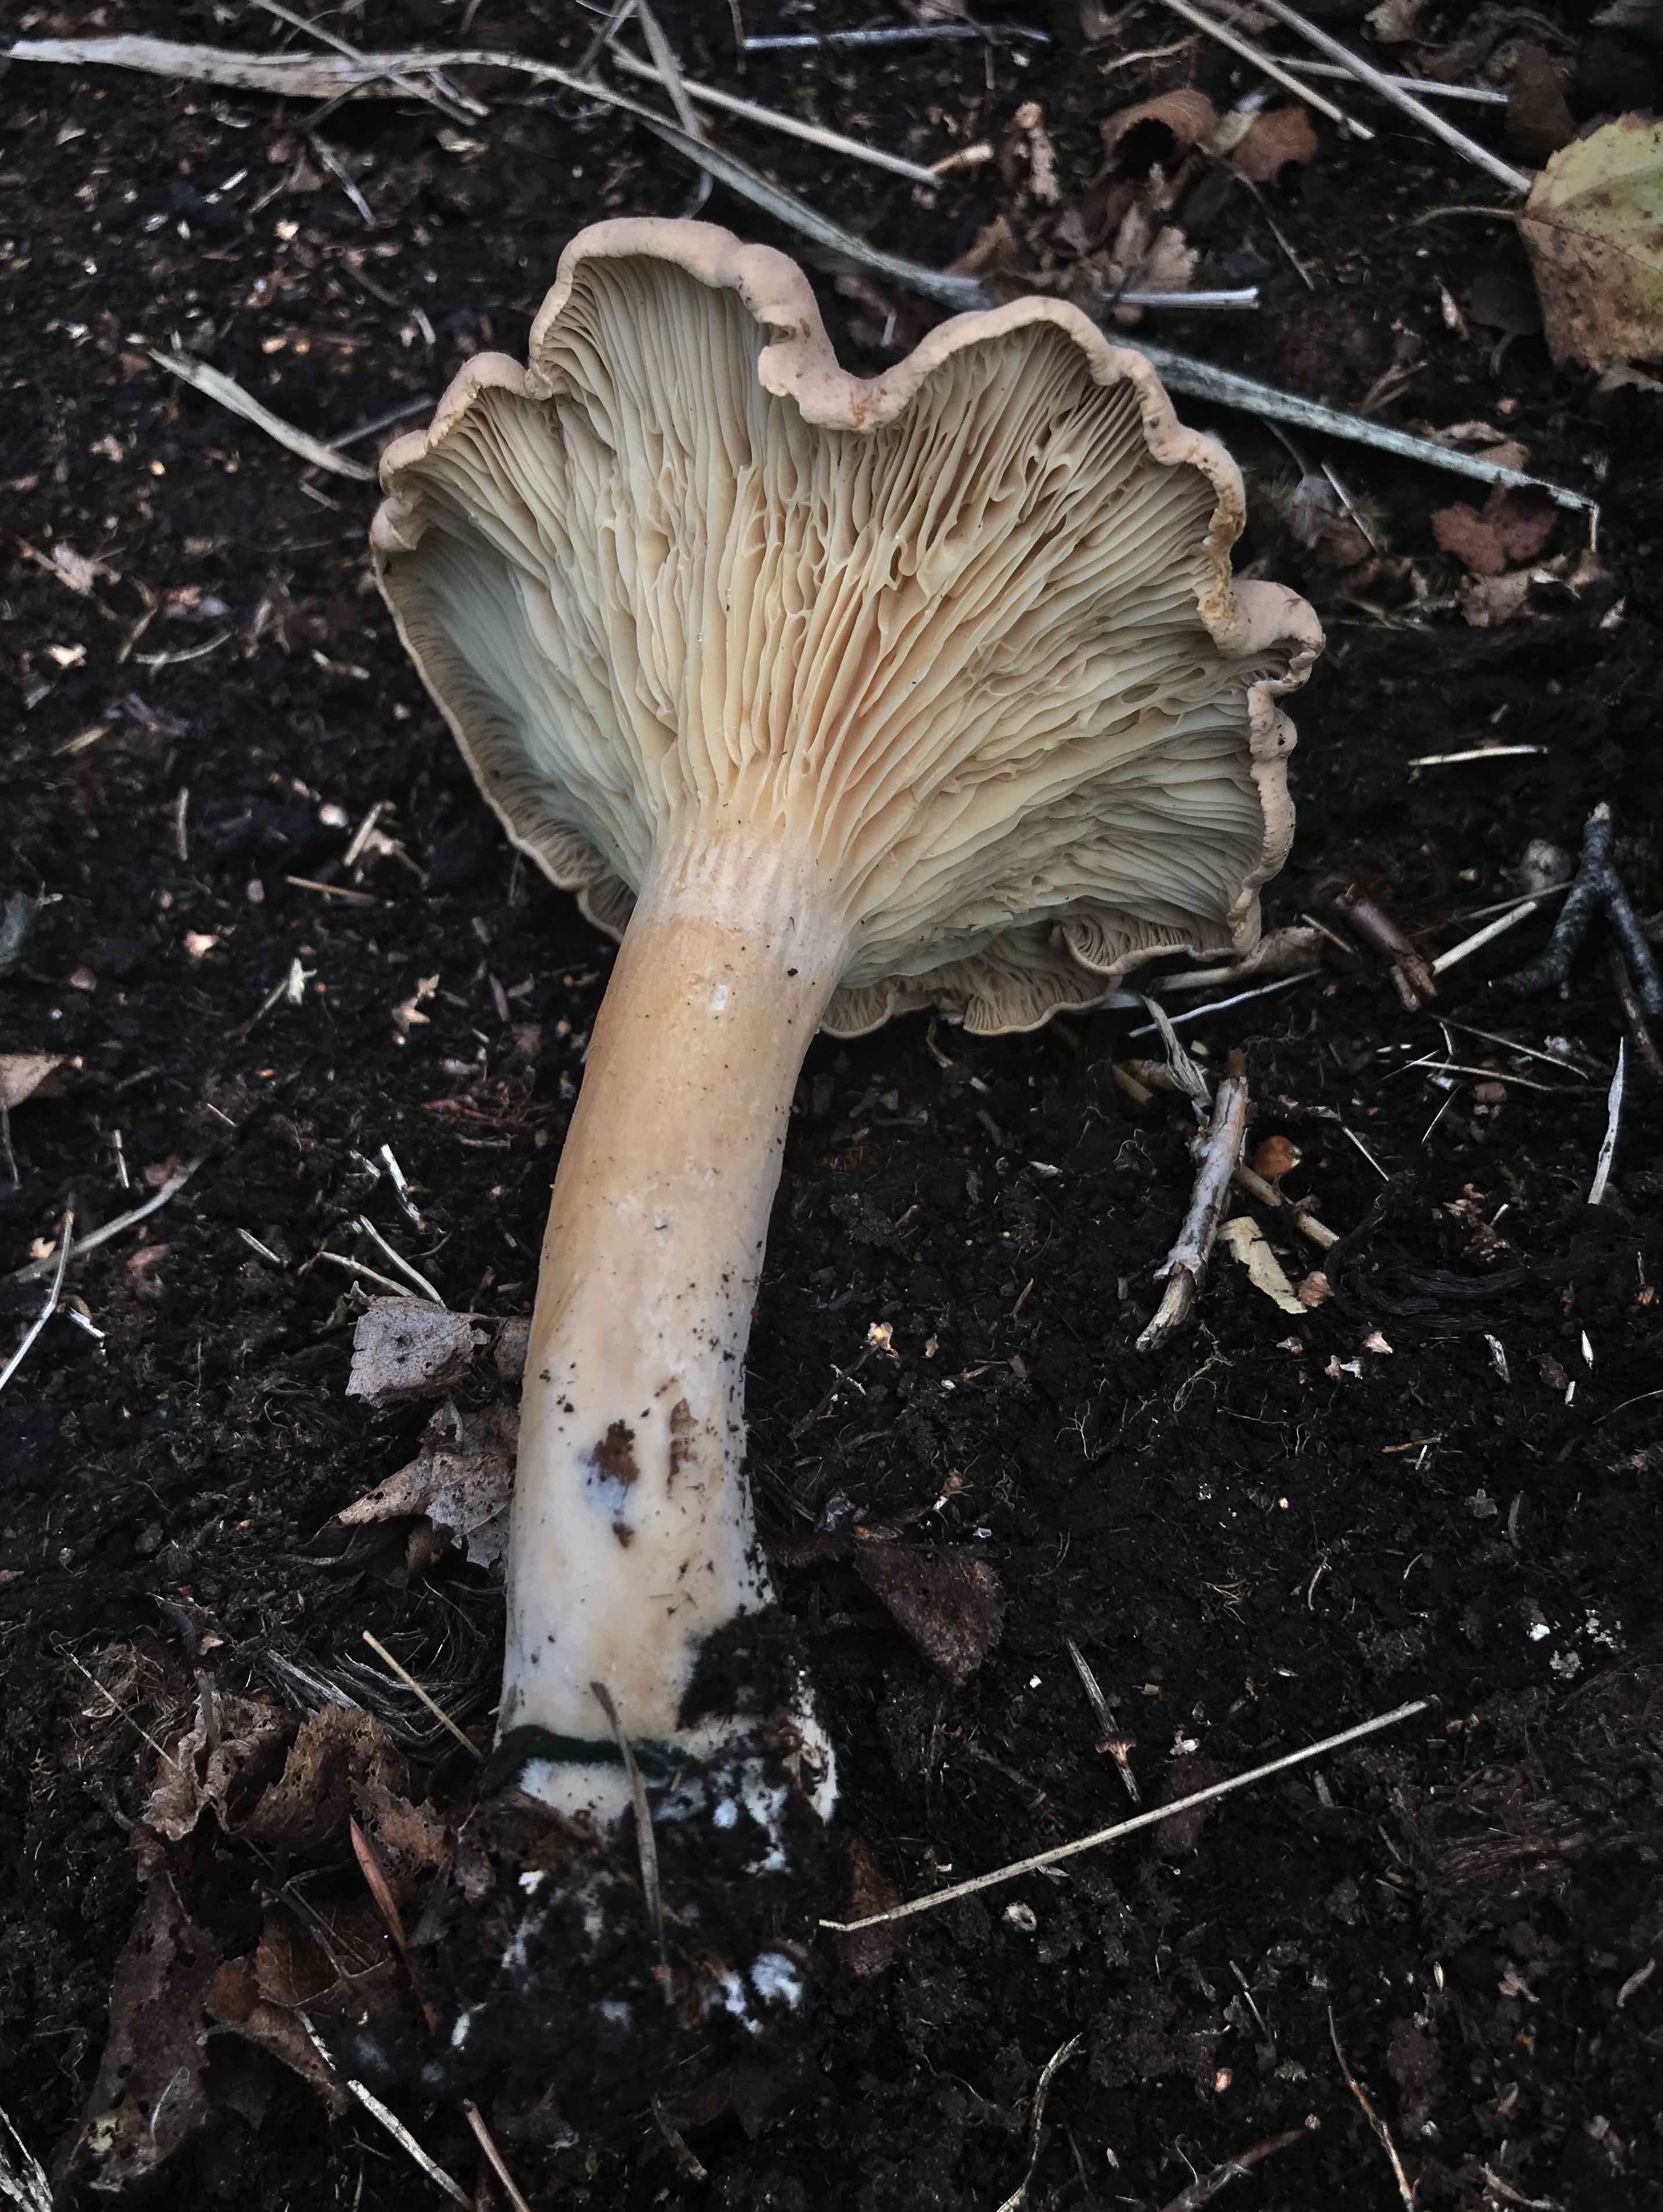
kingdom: Fungi
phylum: Basidiomycota
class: Agaricomycetes
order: Russulales
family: Russulaceae
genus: Lactarius
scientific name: Lactarius helvus
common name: mose-mælkehat
